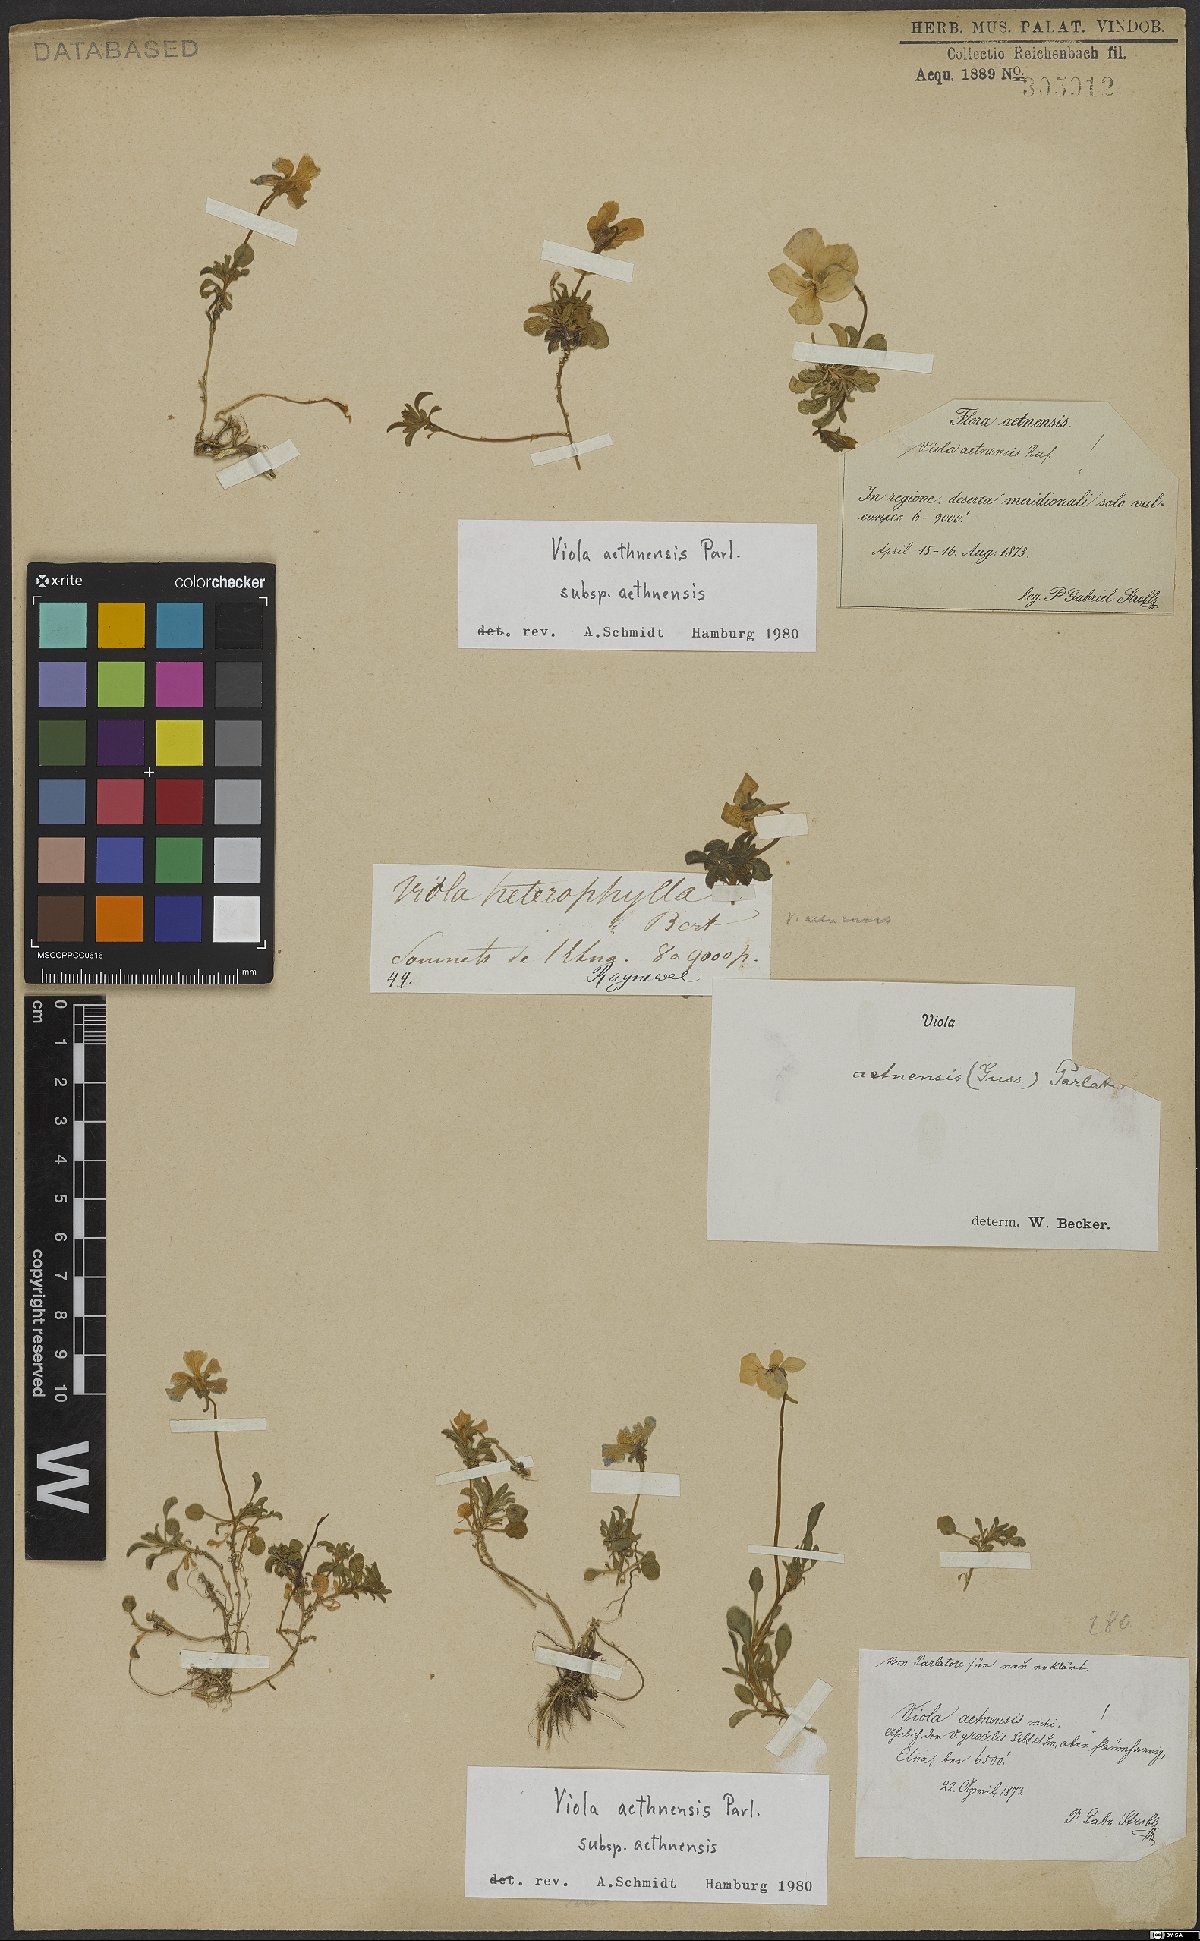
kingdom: Plantae
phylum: Tracheophyta
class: Magnoliopsida
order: Malpighiales
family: Violaceae
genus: Viola
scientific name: Viola aethnensis
